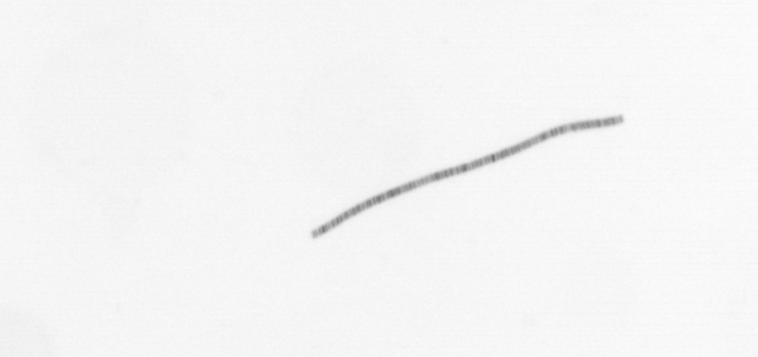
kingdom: Chromista
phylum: Ochrophyta
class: Bacillariophyceae
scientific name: Bacillariophyceae
